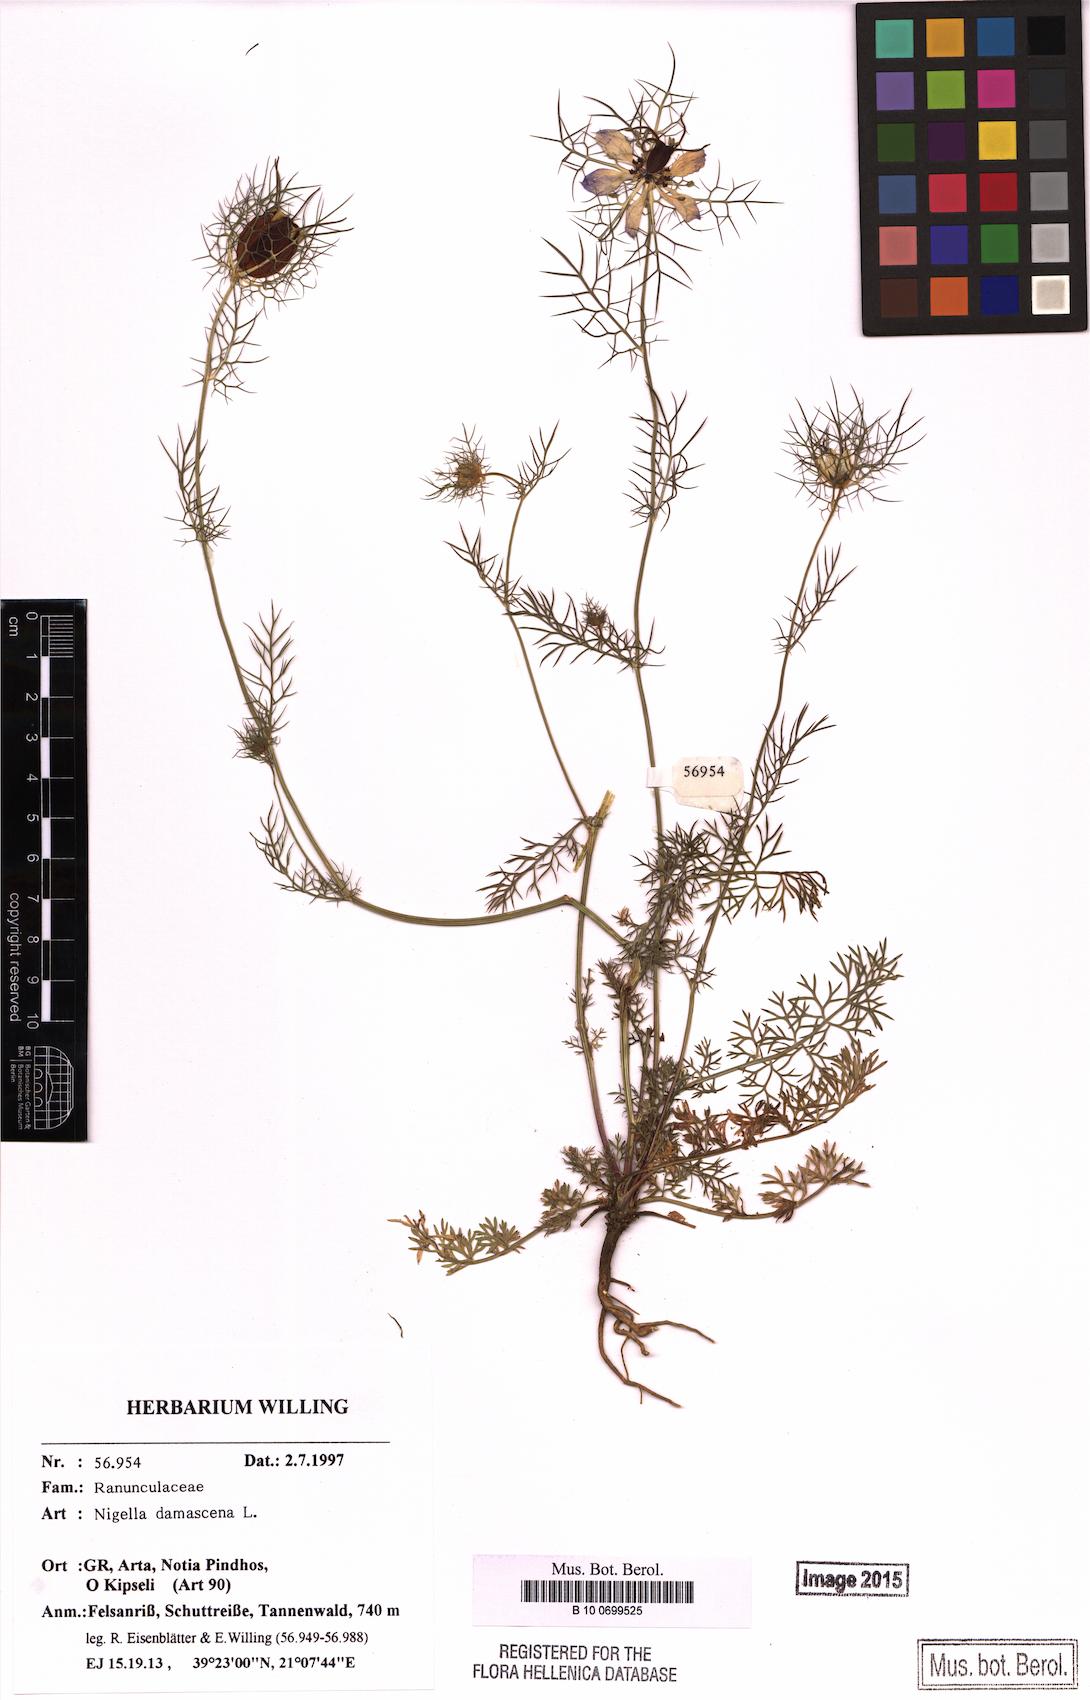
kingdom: Plantae
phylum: Tracheophyta
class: Magnoliopsida
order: Ranunculales
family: Ranunculaceae
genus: Nigella
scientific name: Nigella damascena
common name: Love-in-a-mist
